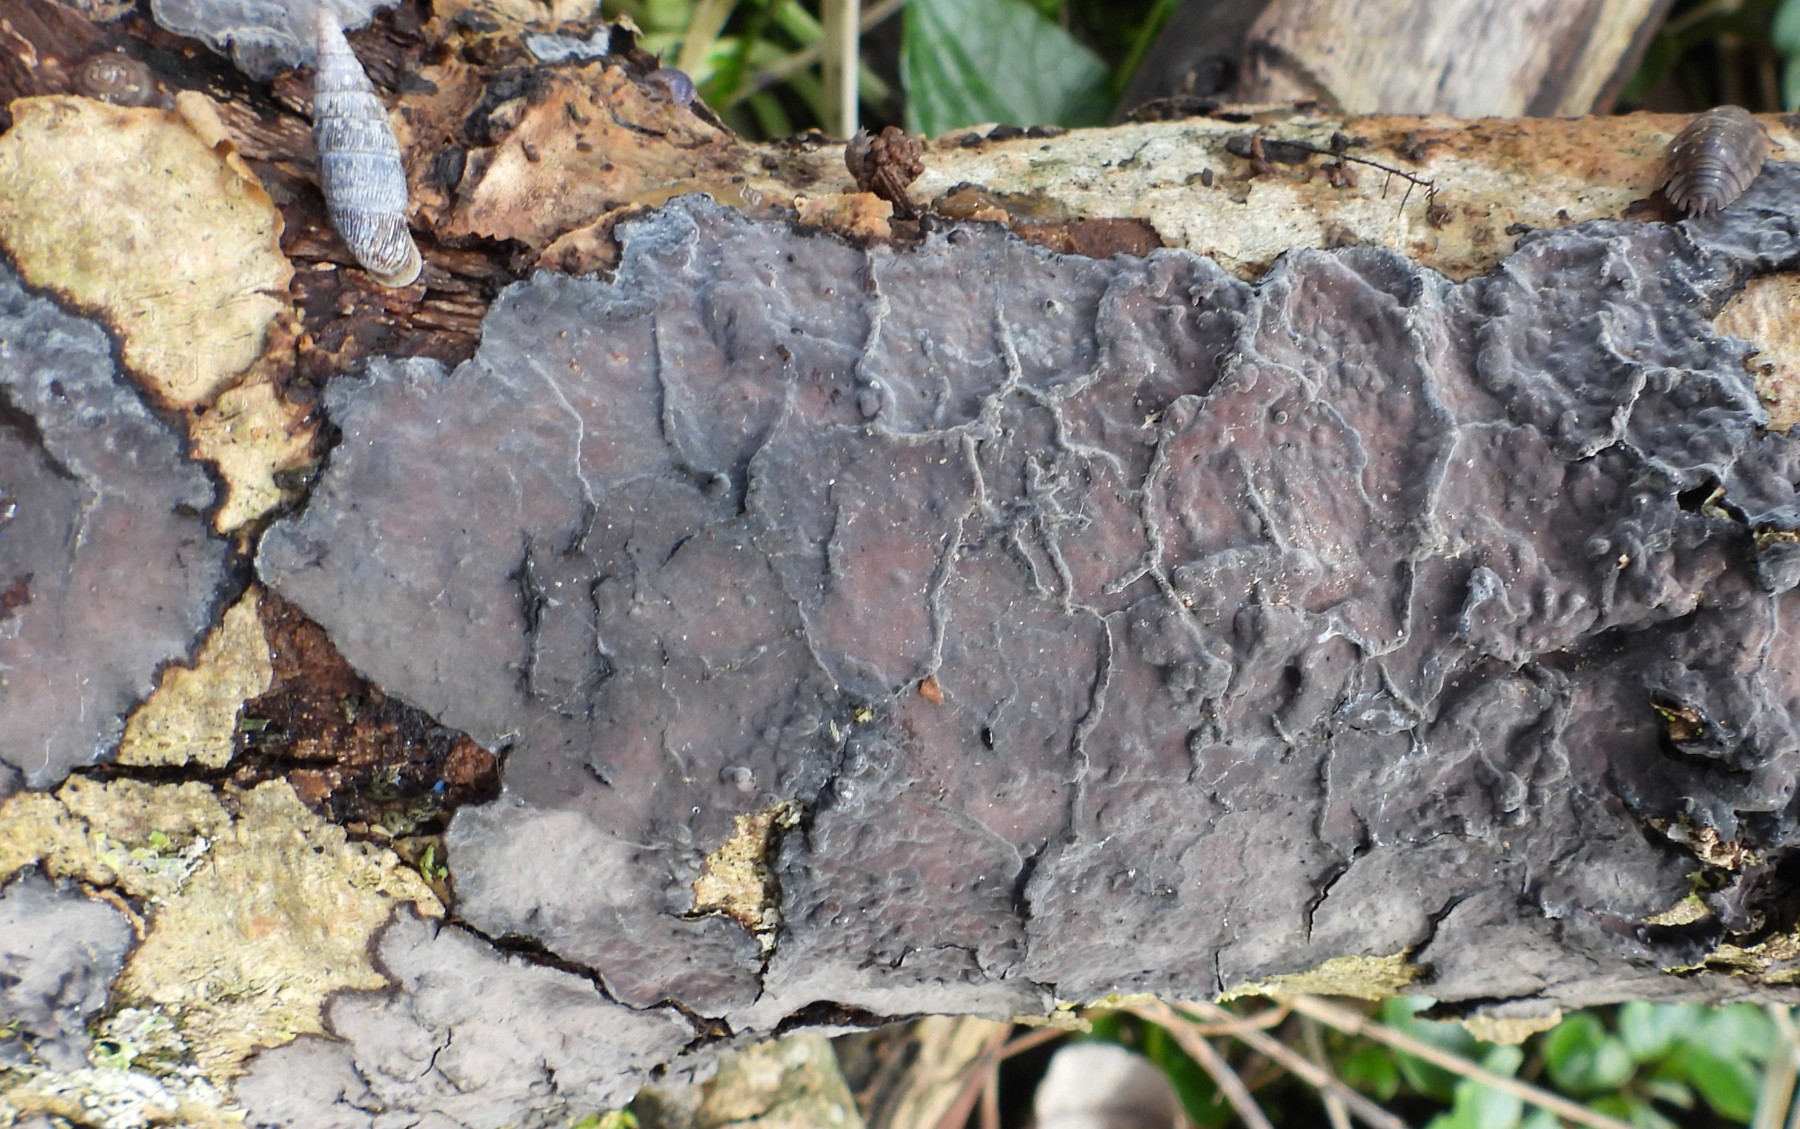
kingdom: Fungi
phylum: Basidiomycota
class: Agaricomycetes
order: Russulales
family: Peniophoraceae
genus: Peniophora
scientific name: Peniophora limitata
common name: mørkrandet voksskind
